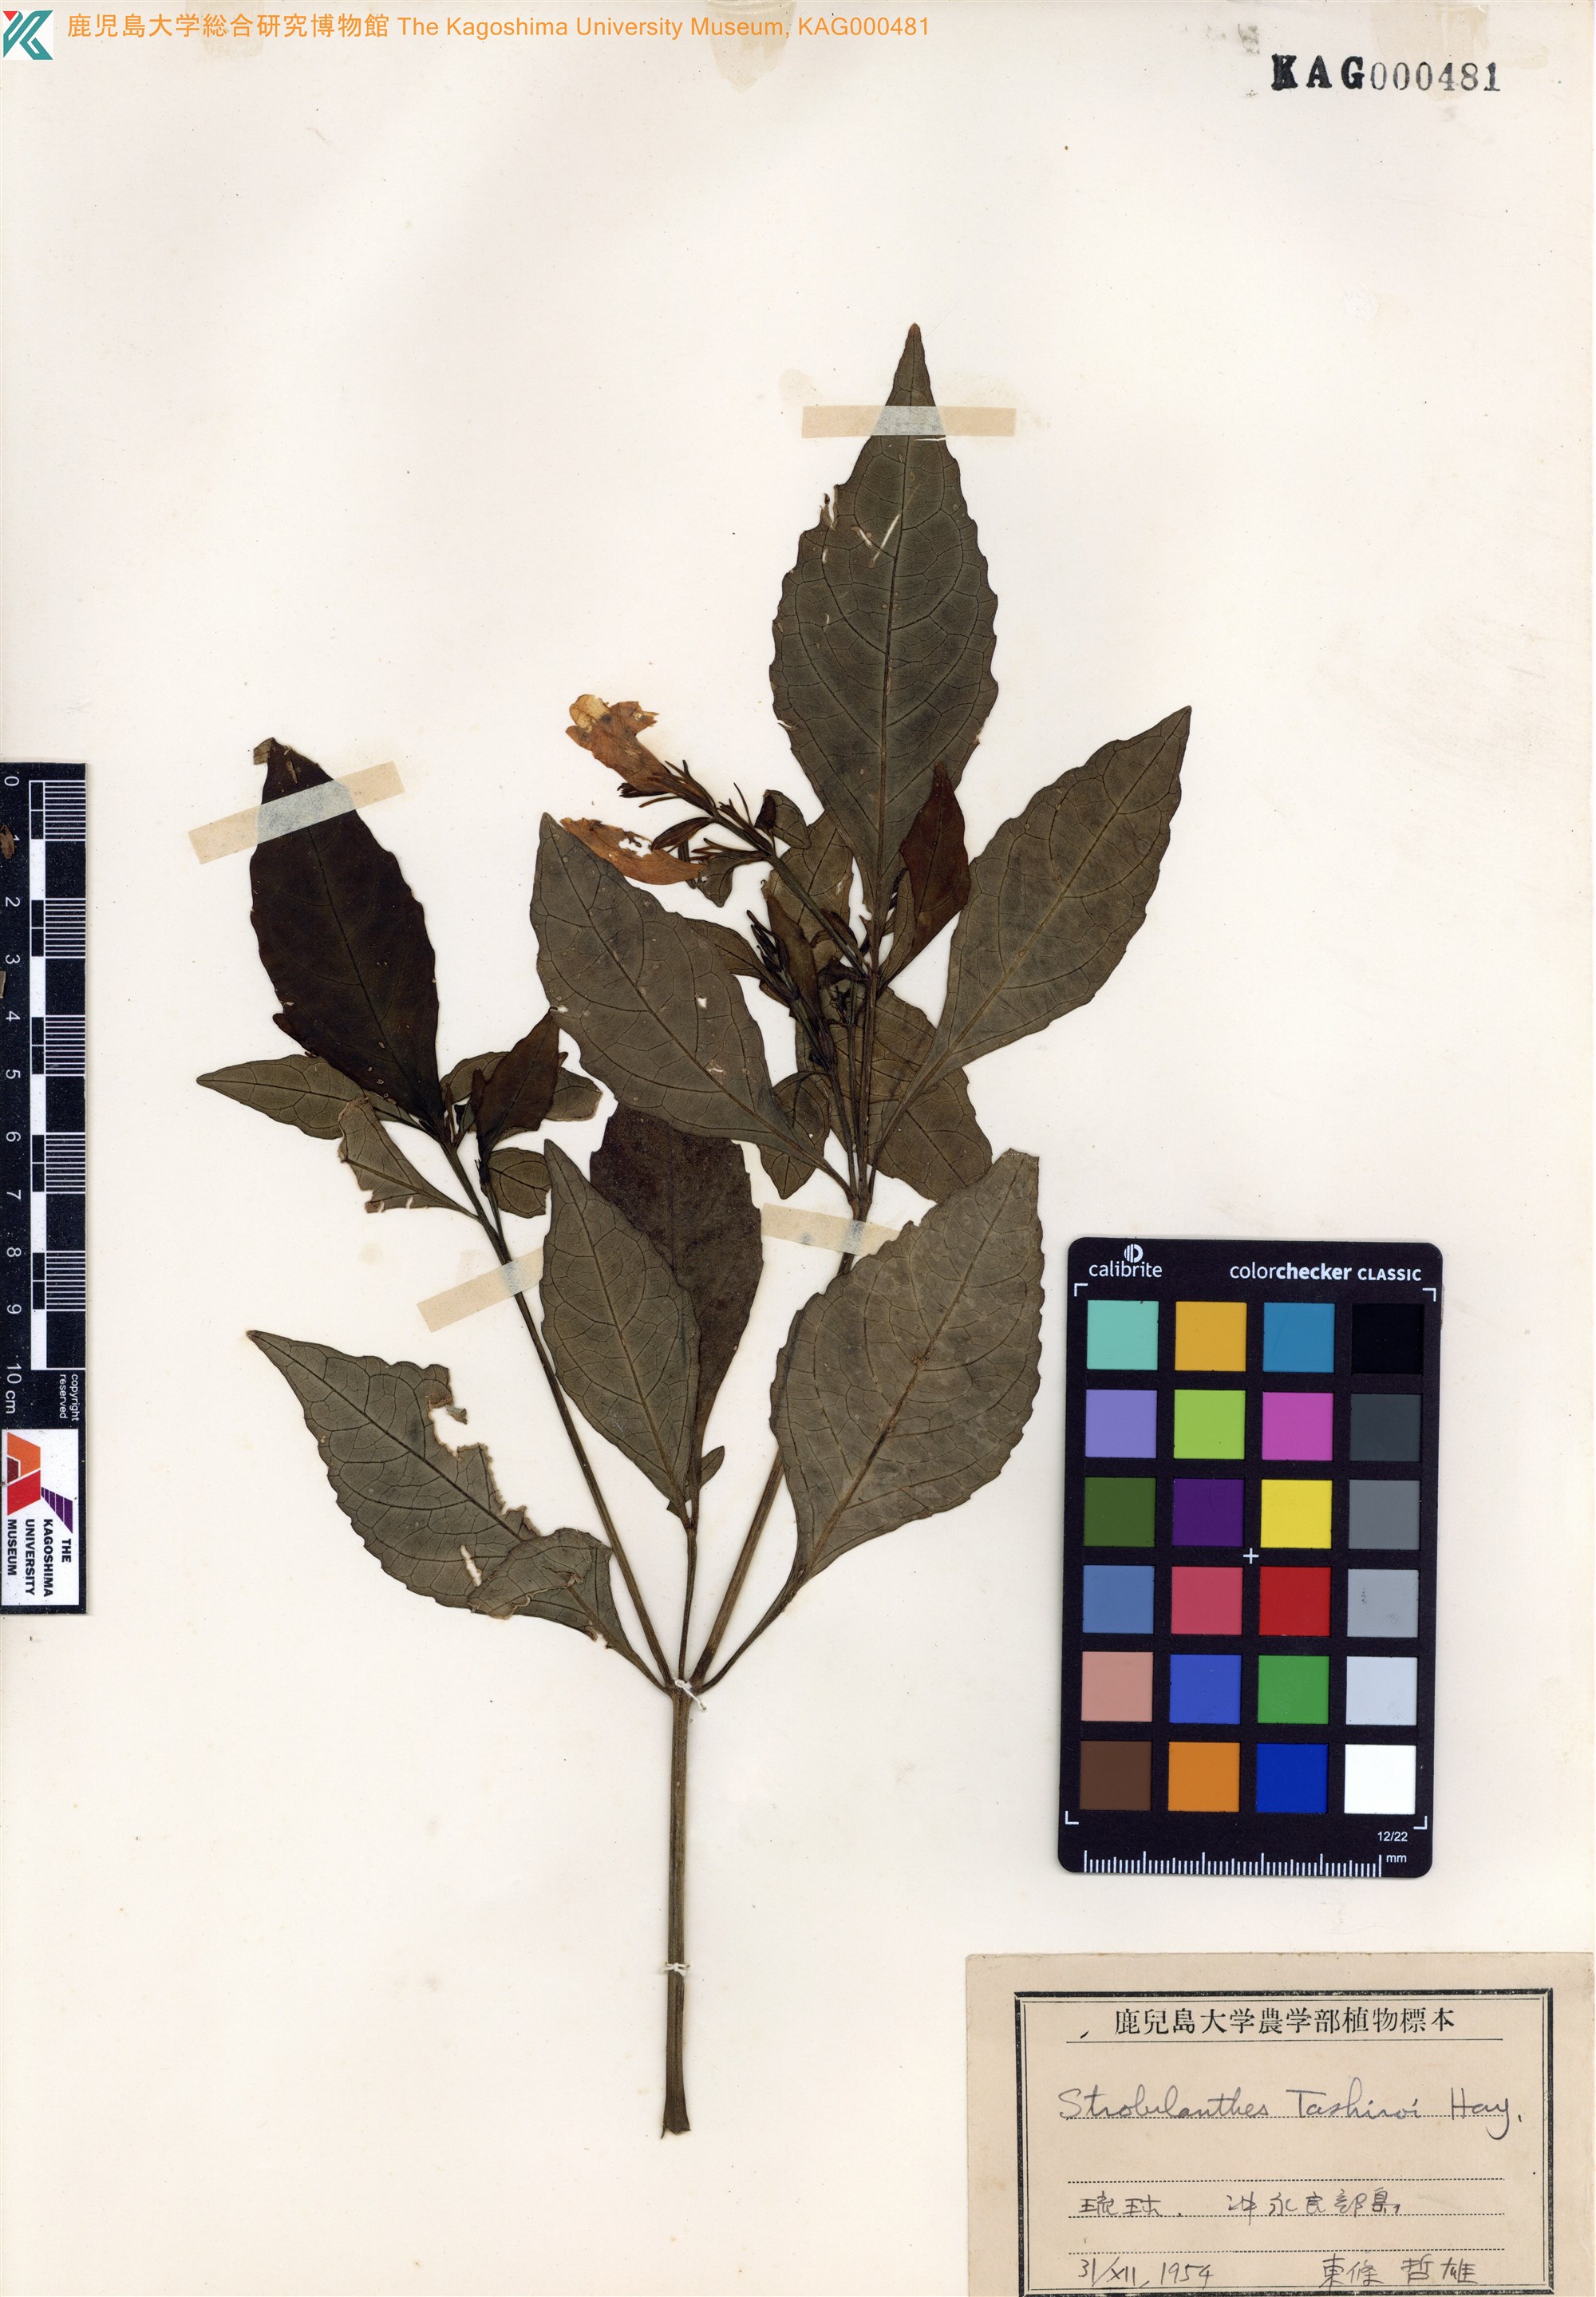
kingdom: Plantae
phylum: Tracheophyta
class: Magnoliopsida
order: Lamiales
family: Acanthaceae
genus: Strobilanthes
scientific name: Strobilanthes flexicaulis
